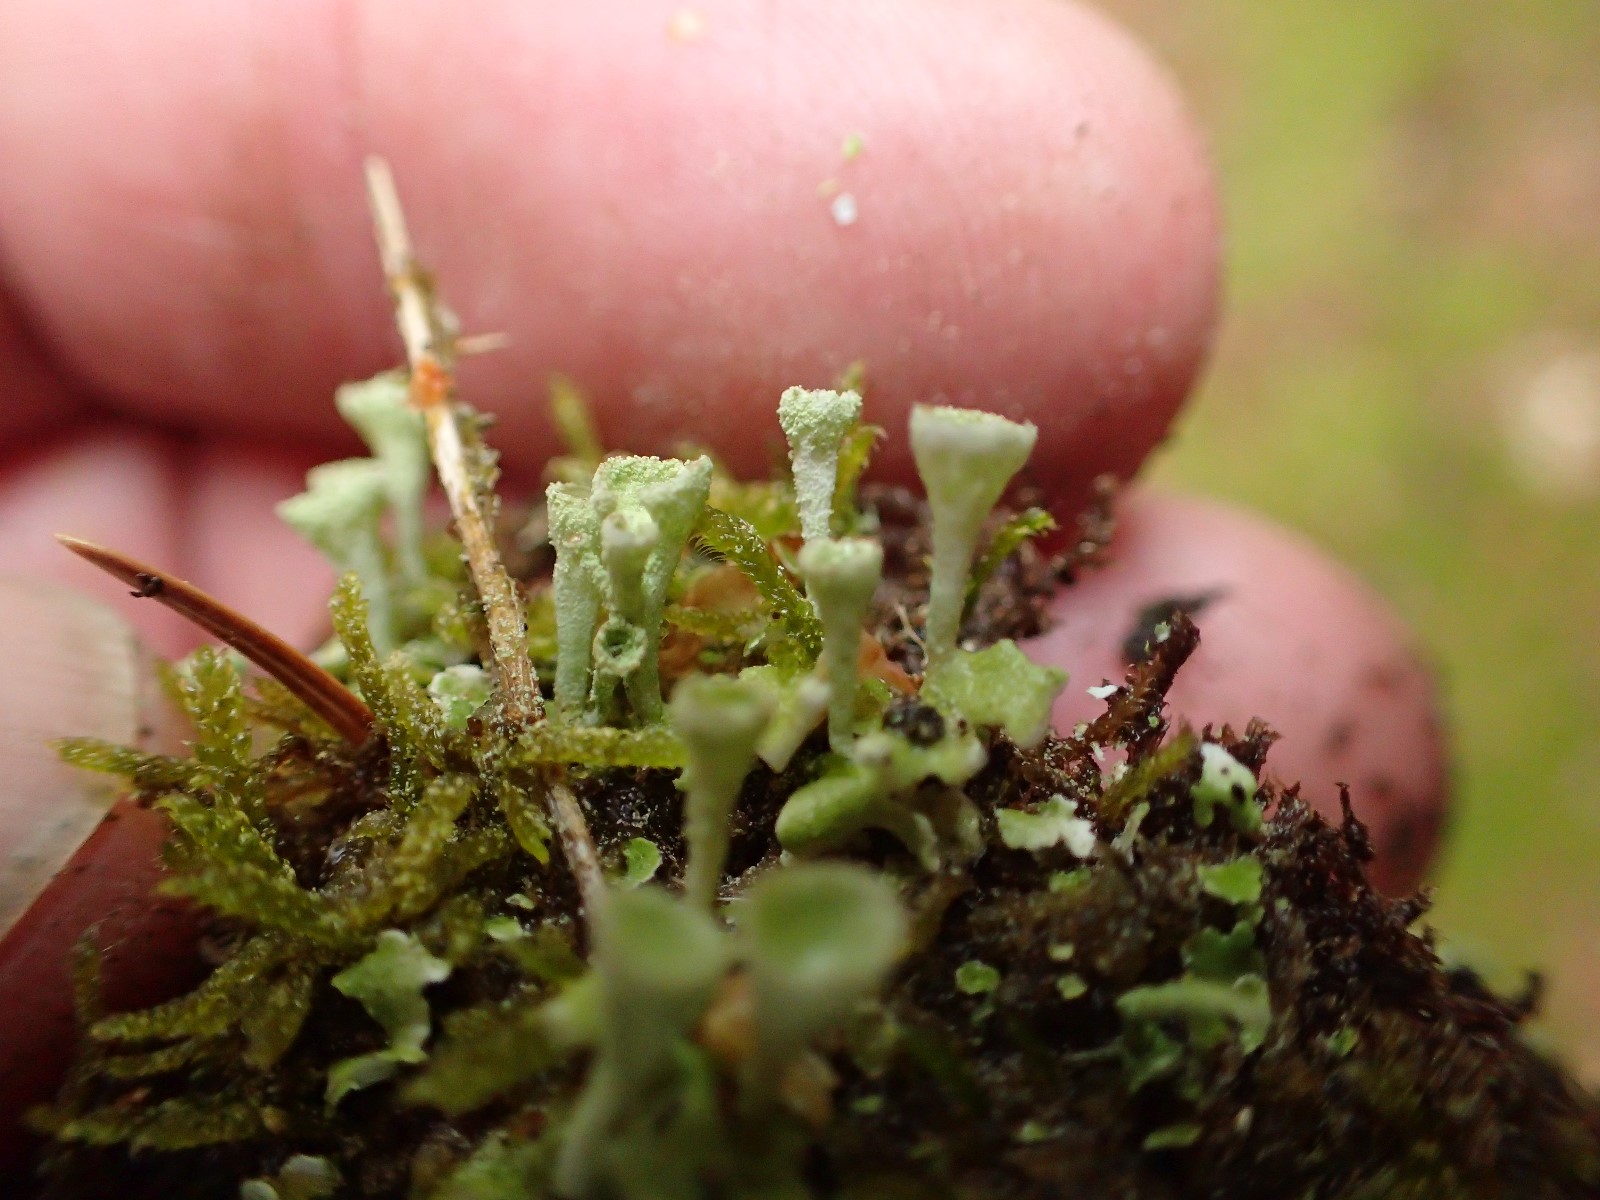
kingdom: Fungi
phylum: Ascomycota
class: Lecanoromycetes
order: Lecanorales
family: Cladoniaceae
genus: Cladonia
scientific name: Cladonia fimbriata
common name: bleggrøn bægerlav
